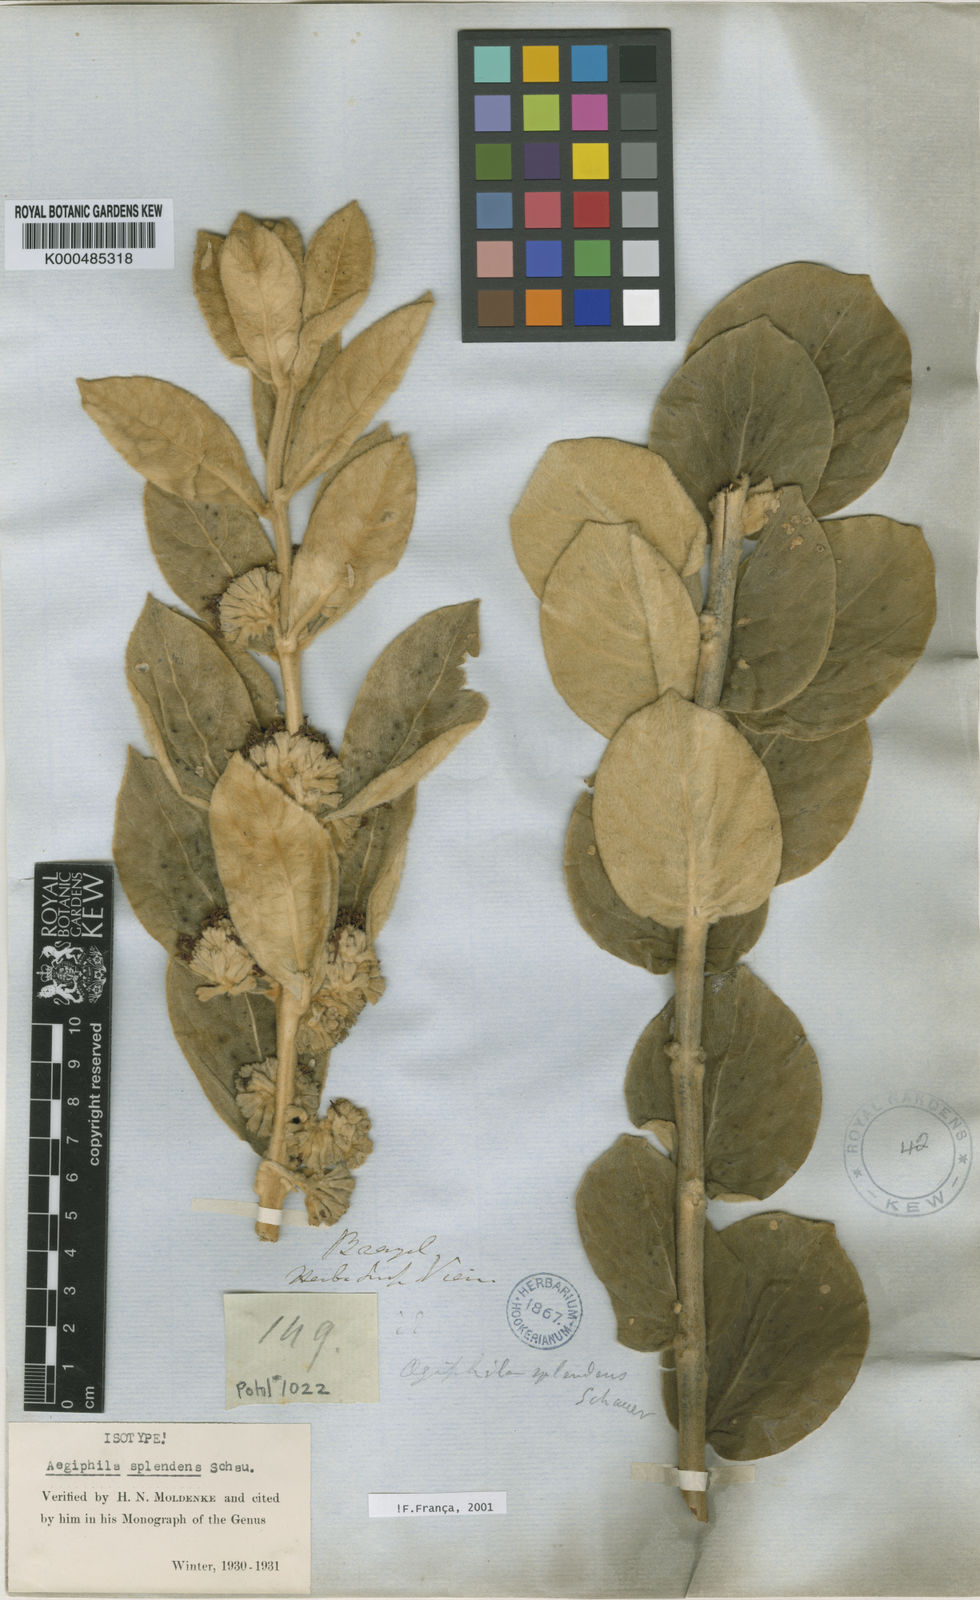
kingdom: Plantae
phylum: Tracheophyta
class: Magnoliopsida
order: Lamiales
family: Lamiaceae
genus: Aegiphila
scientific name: Aegiphila verticillata
